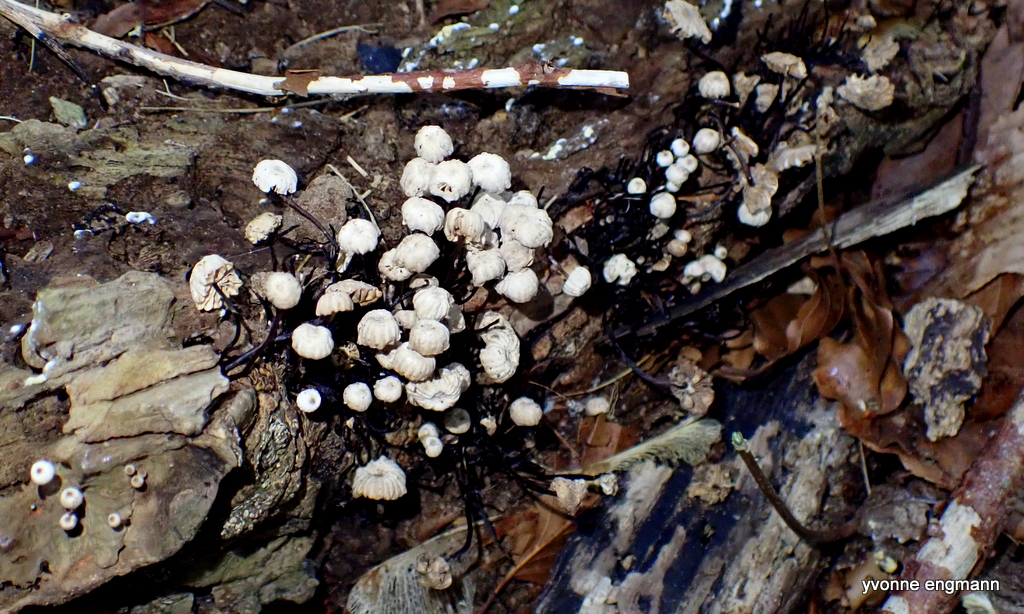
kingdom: Fungi
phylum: Basidiomycota
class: Agaricomycetes
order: Agaricales
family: Marasmiaceae
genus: Marasmius
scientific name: Marasmius rotula
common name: hjul-bruskhat
